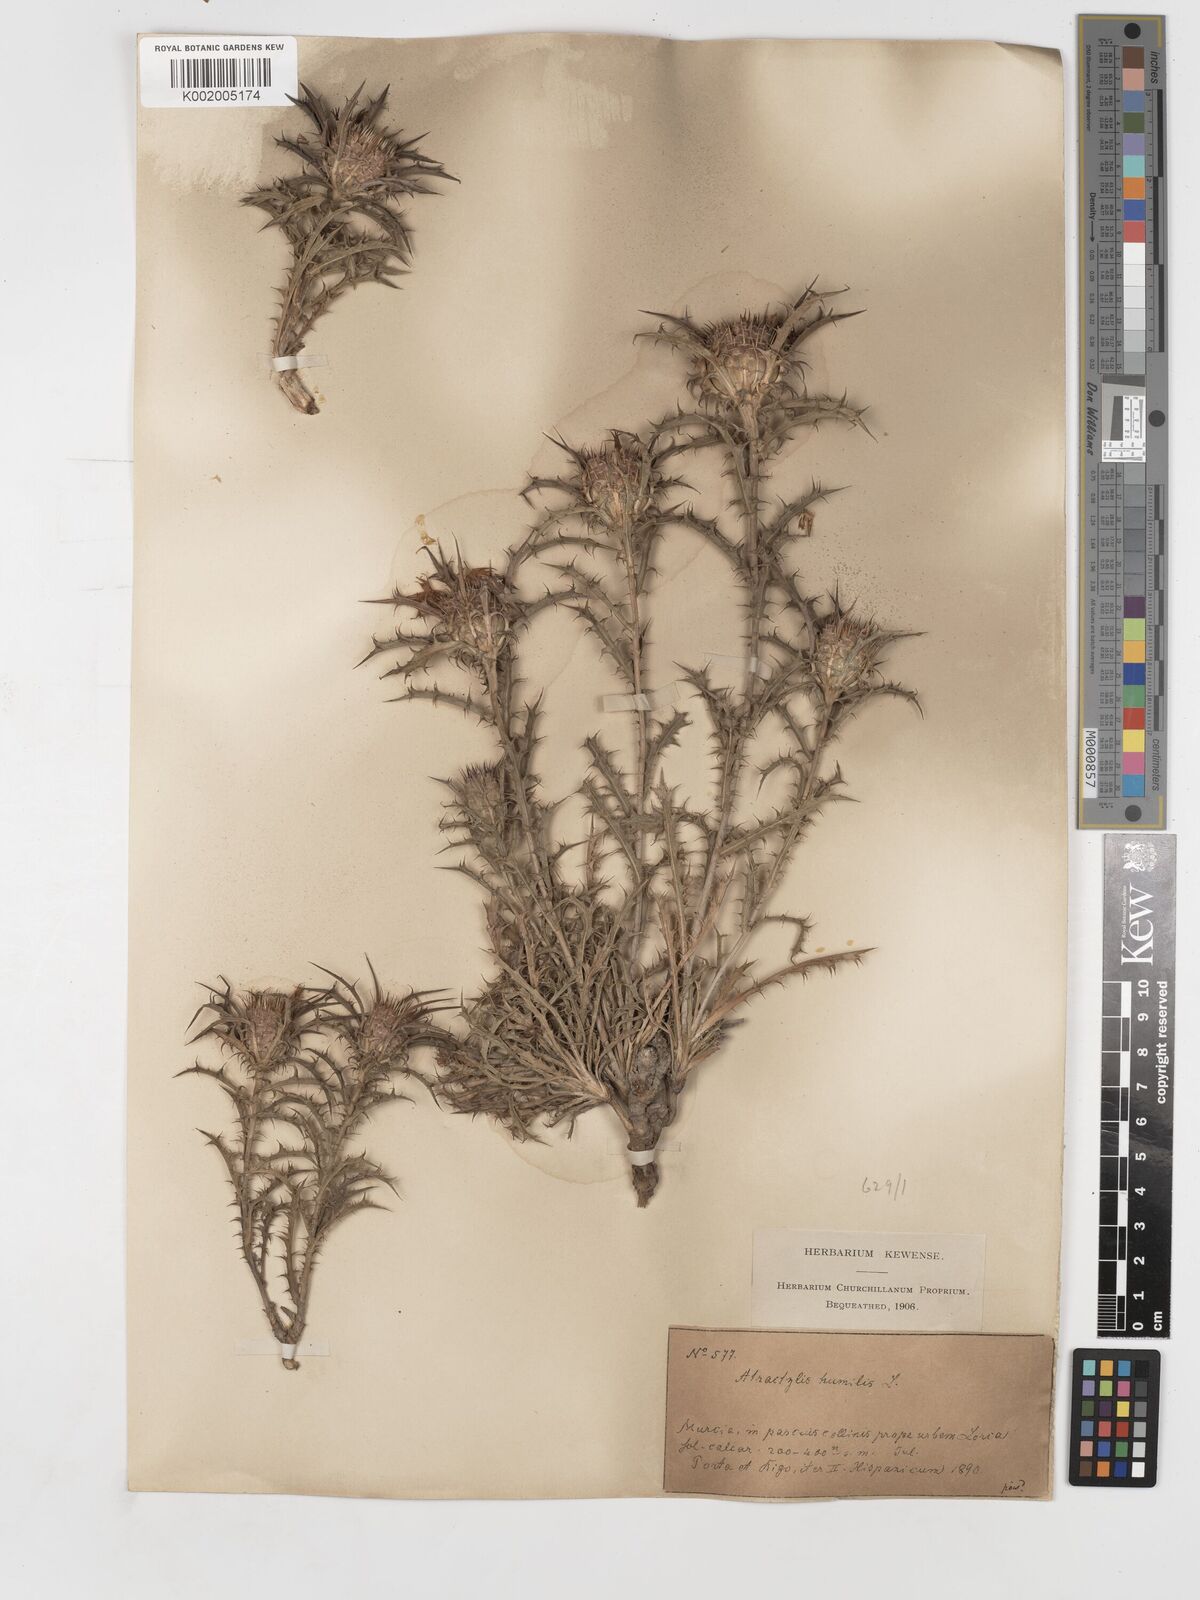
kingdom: Plantae
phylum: Tracheophyta
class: Magnoliopsida
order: Asterales
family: Asteraceae
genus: Atractylis
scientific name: Atractylis humilis
